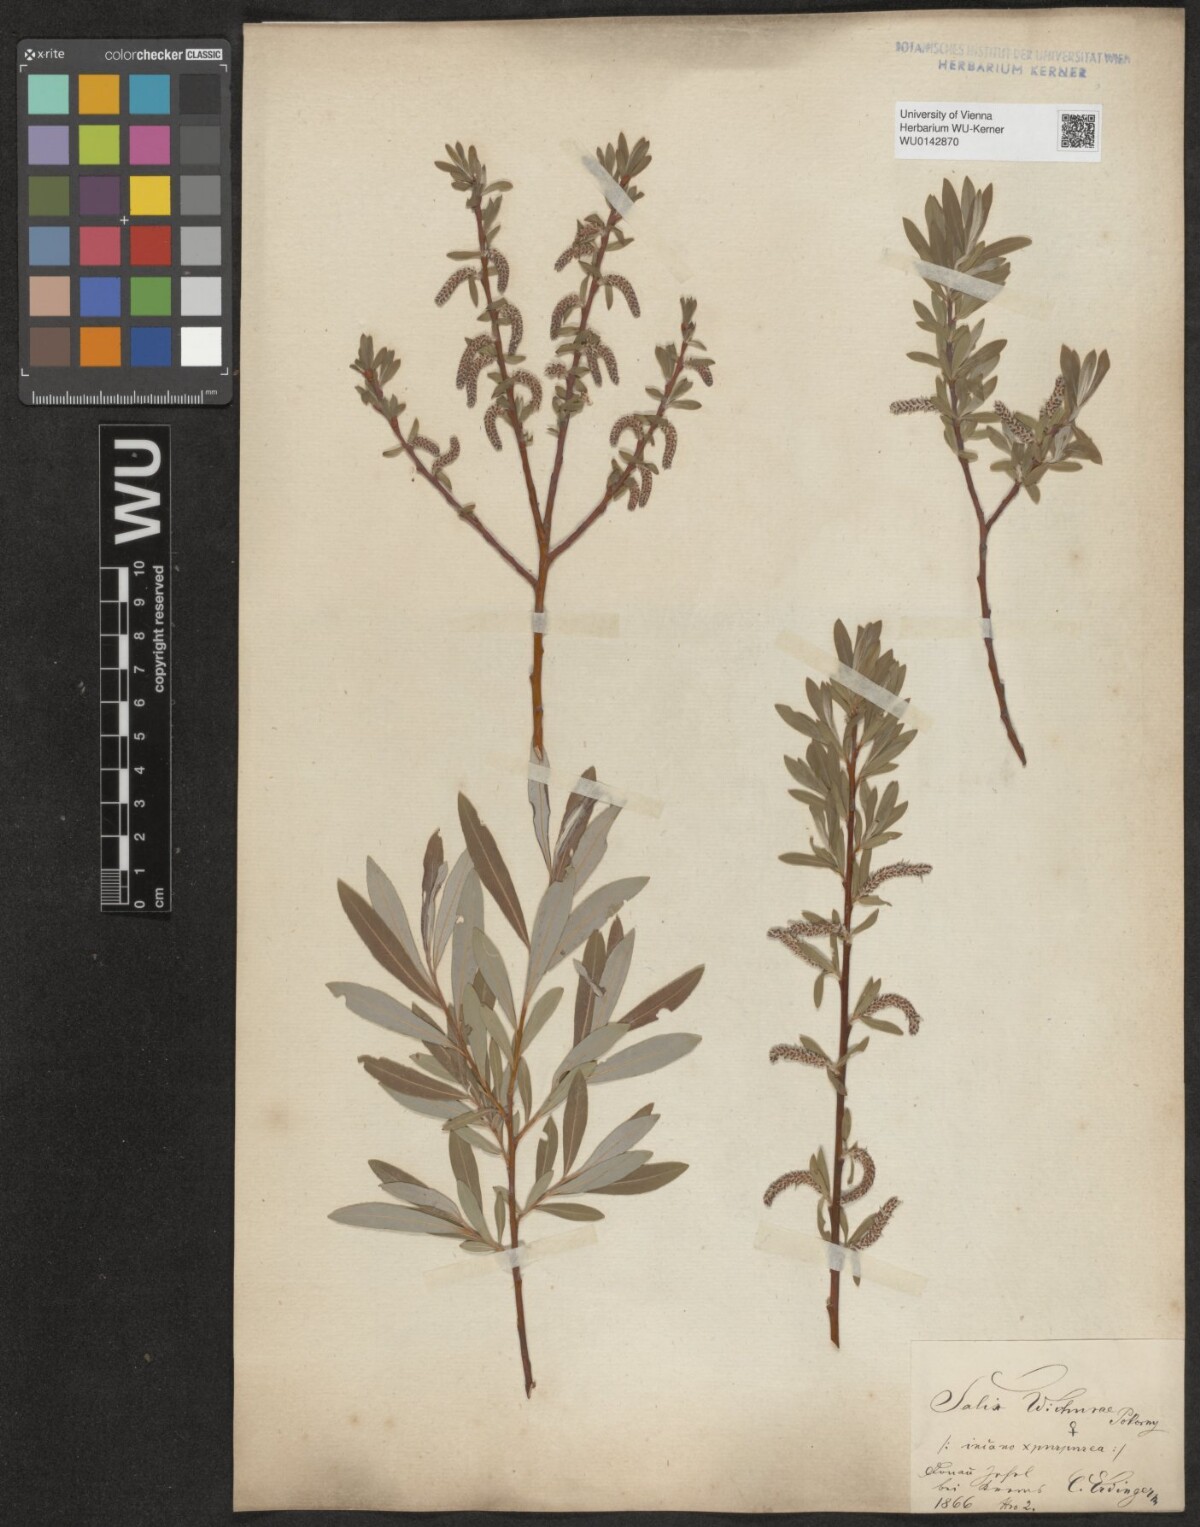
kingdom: Plantae
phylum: Tracheophyta
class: Magnoliopsida
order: Malpighiales
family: Salicaceae
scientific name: Salicaceae
